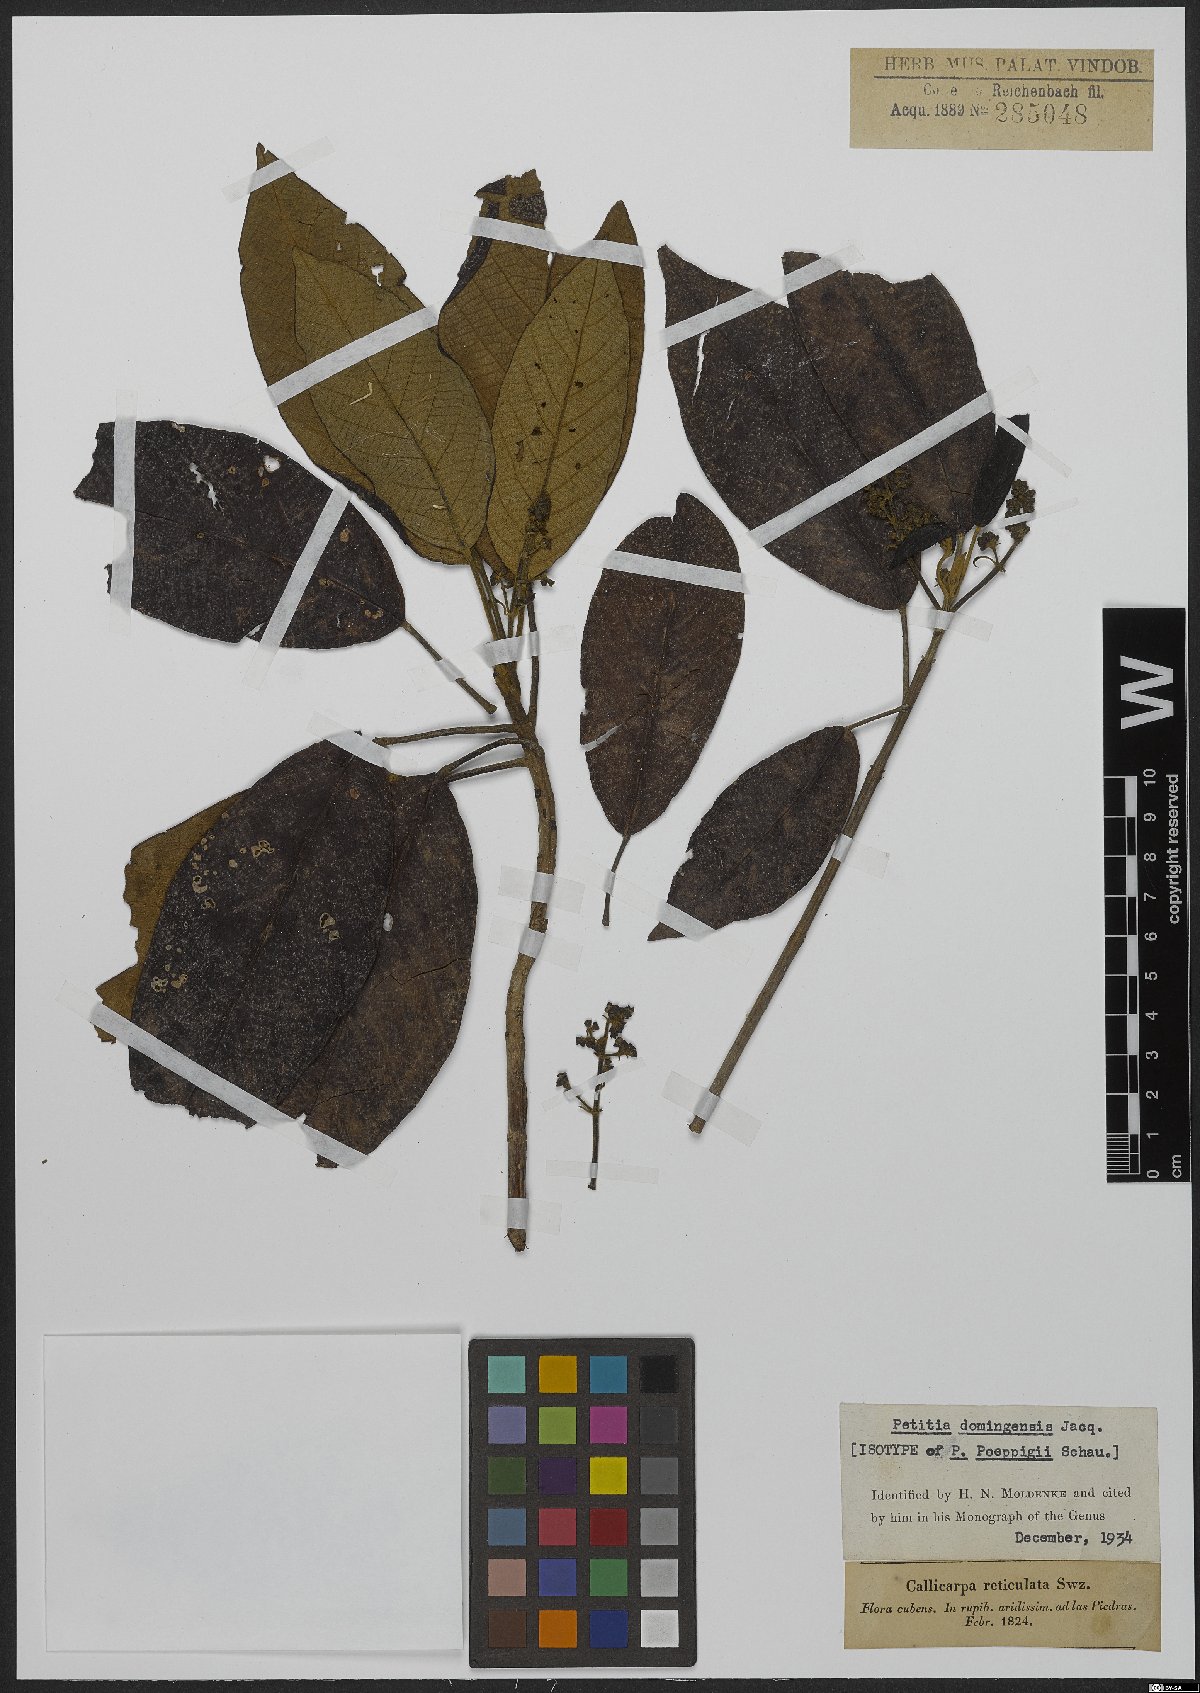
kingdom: Plantae
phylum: Tracheophyta
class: Magnoliopsida
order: Lamiales
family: Lamiaceae
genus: Petitia
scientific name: Petitia domingensis
